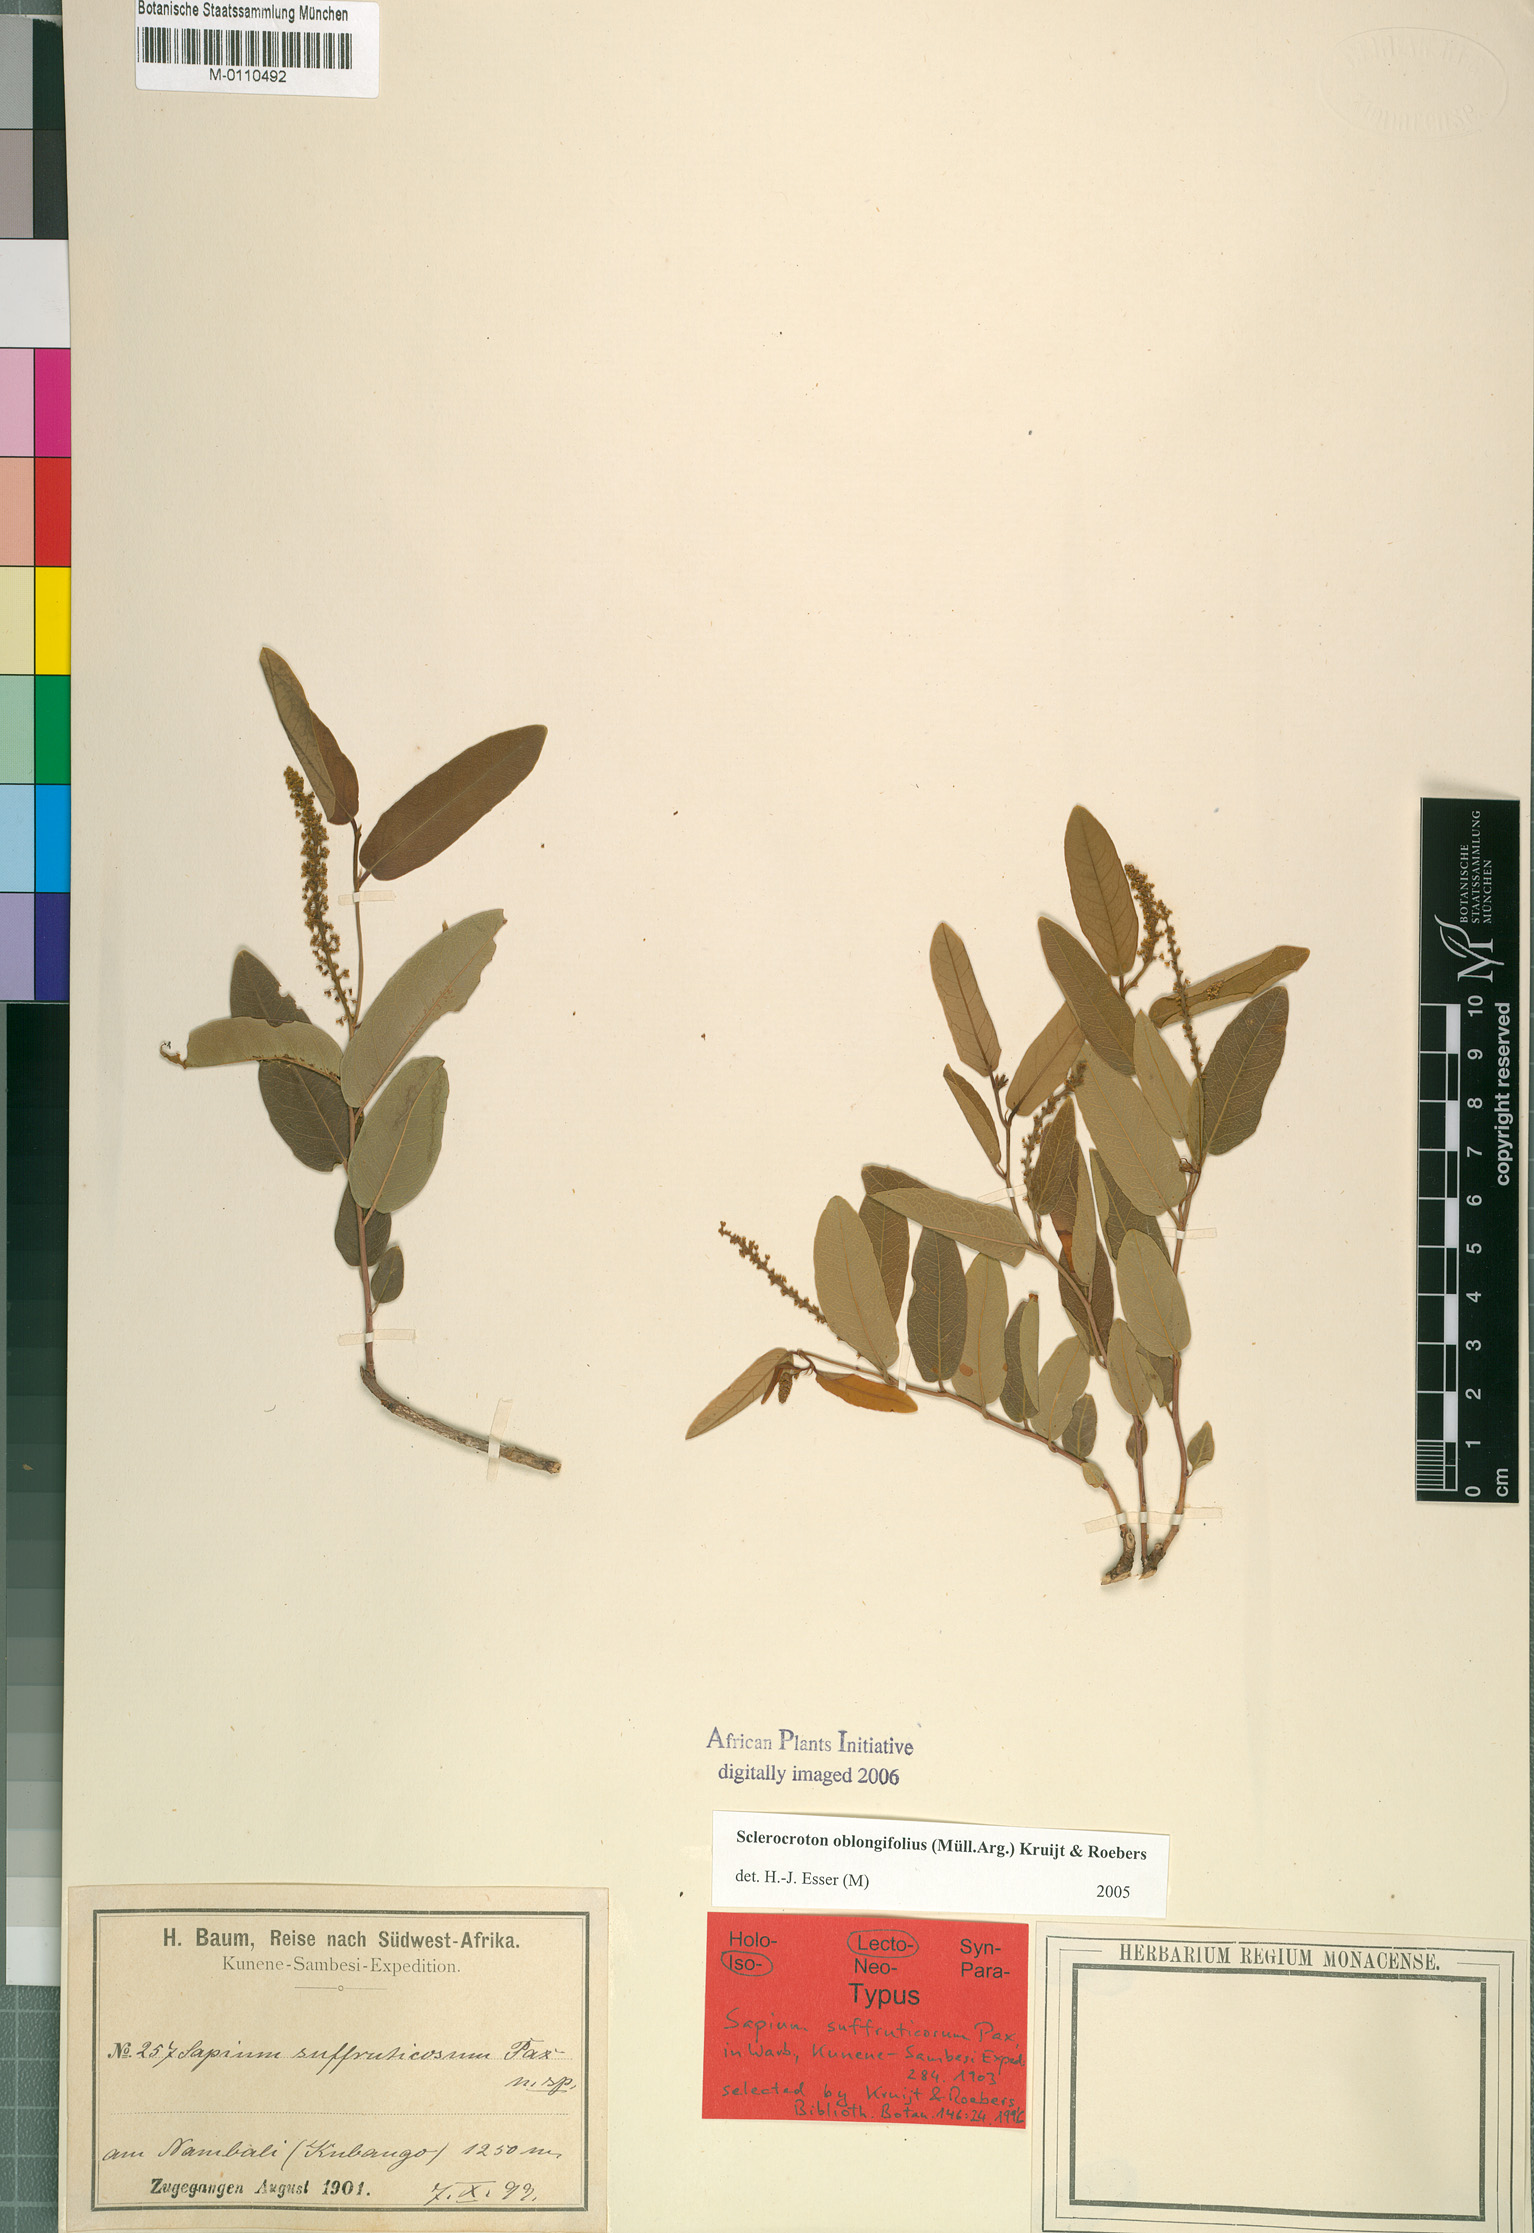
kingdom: Plantae
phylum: Tracheophyta
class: Magnoliopsida
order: Malpighiales
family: Euphorbiaceae
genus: Sclerocroton
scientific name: Sclerocroton oblongifolius
